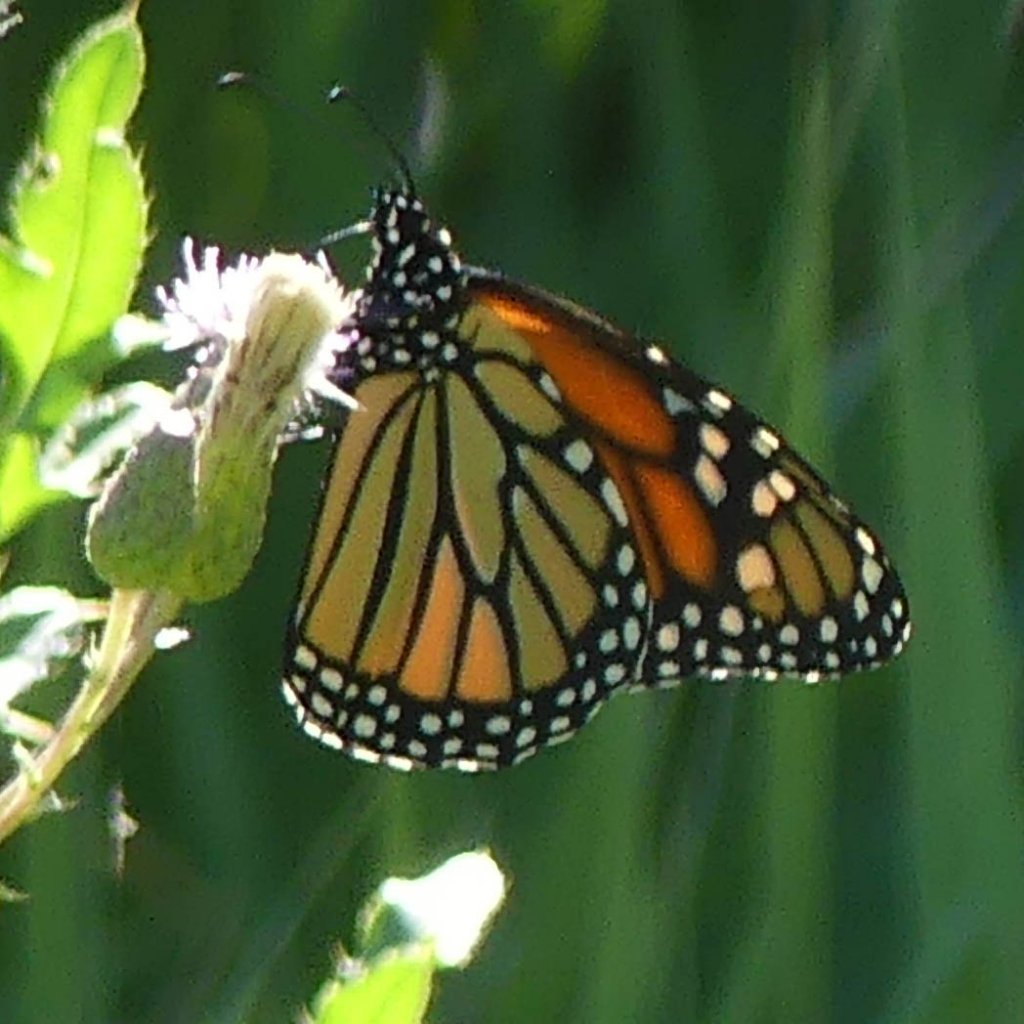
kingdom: Animalia
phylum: Arthropoda
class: Insecta
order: Lepidoptera
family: Nymphalidae
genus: Danaus
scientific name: Danaus plexippus
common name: Monarch
